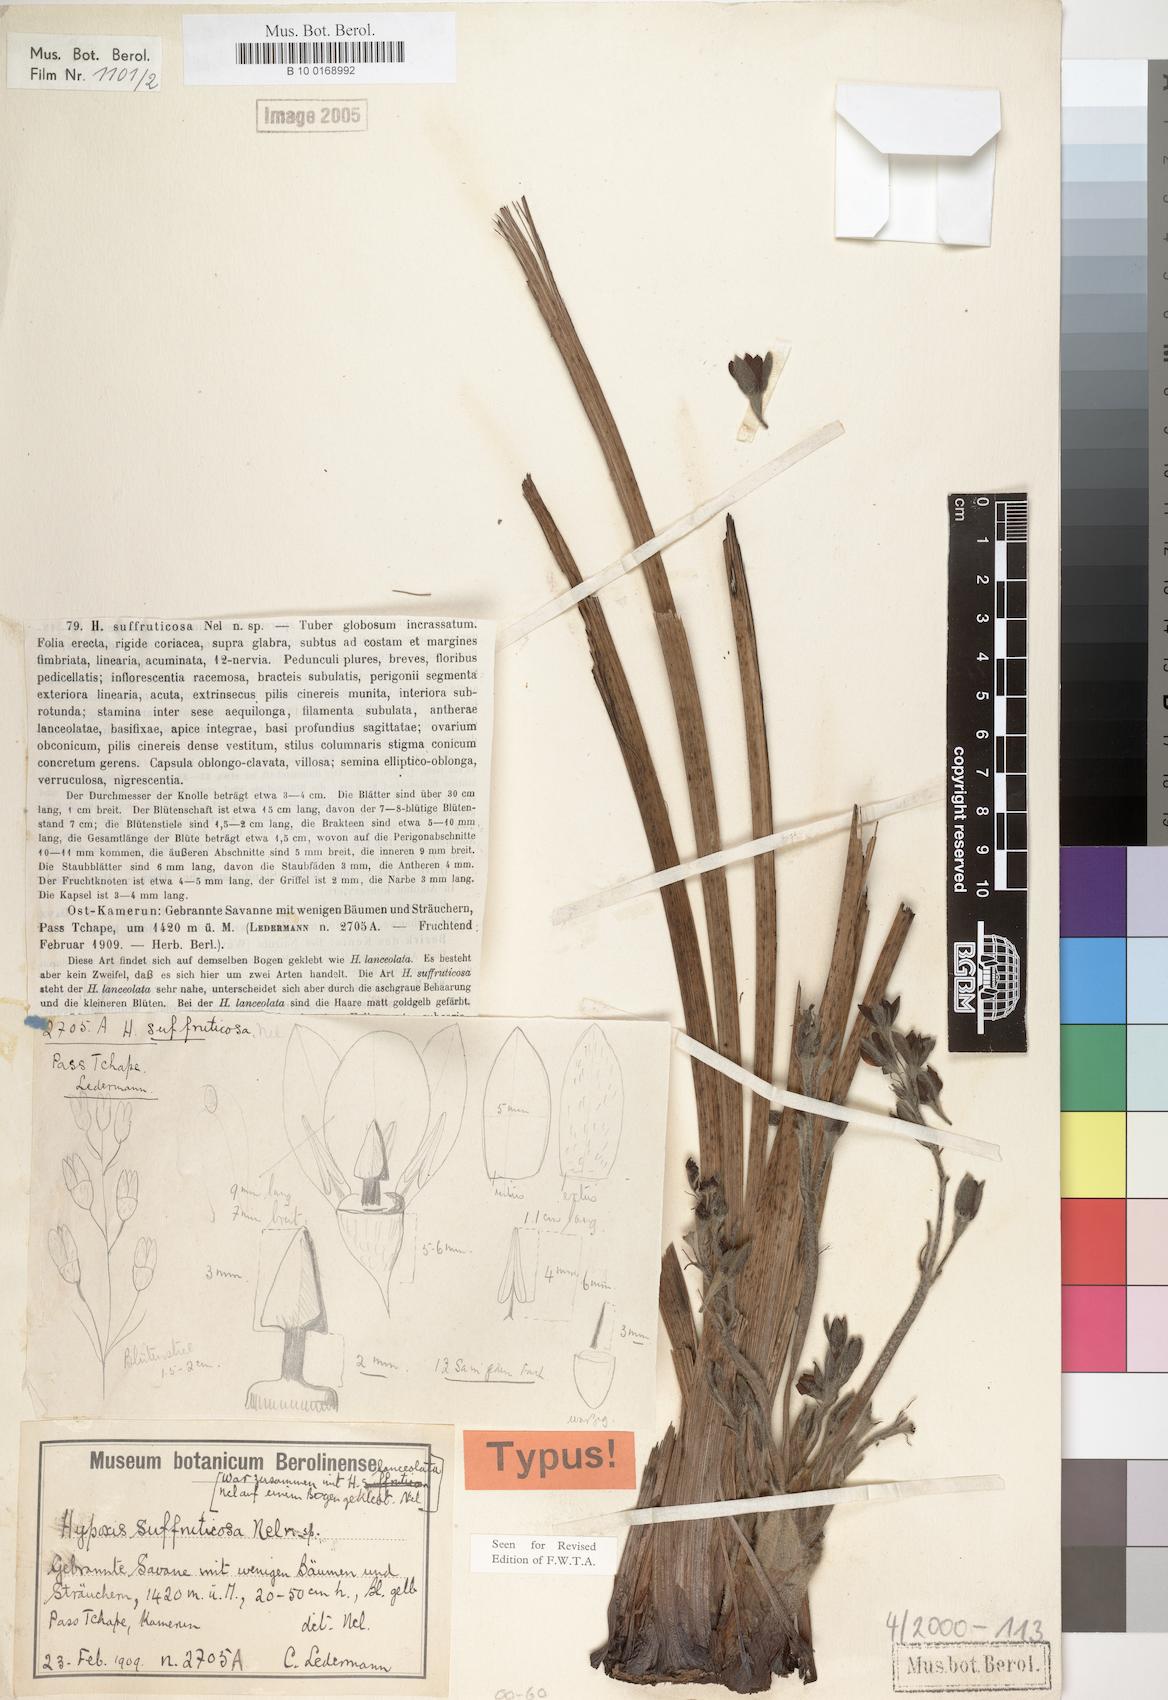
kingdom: Plantae
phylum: Tracheophyta
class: Liliopsida
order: Asparagales
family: Hypoxidaceae
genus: Hypoxis
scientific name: Hypoxis suffruticosa
